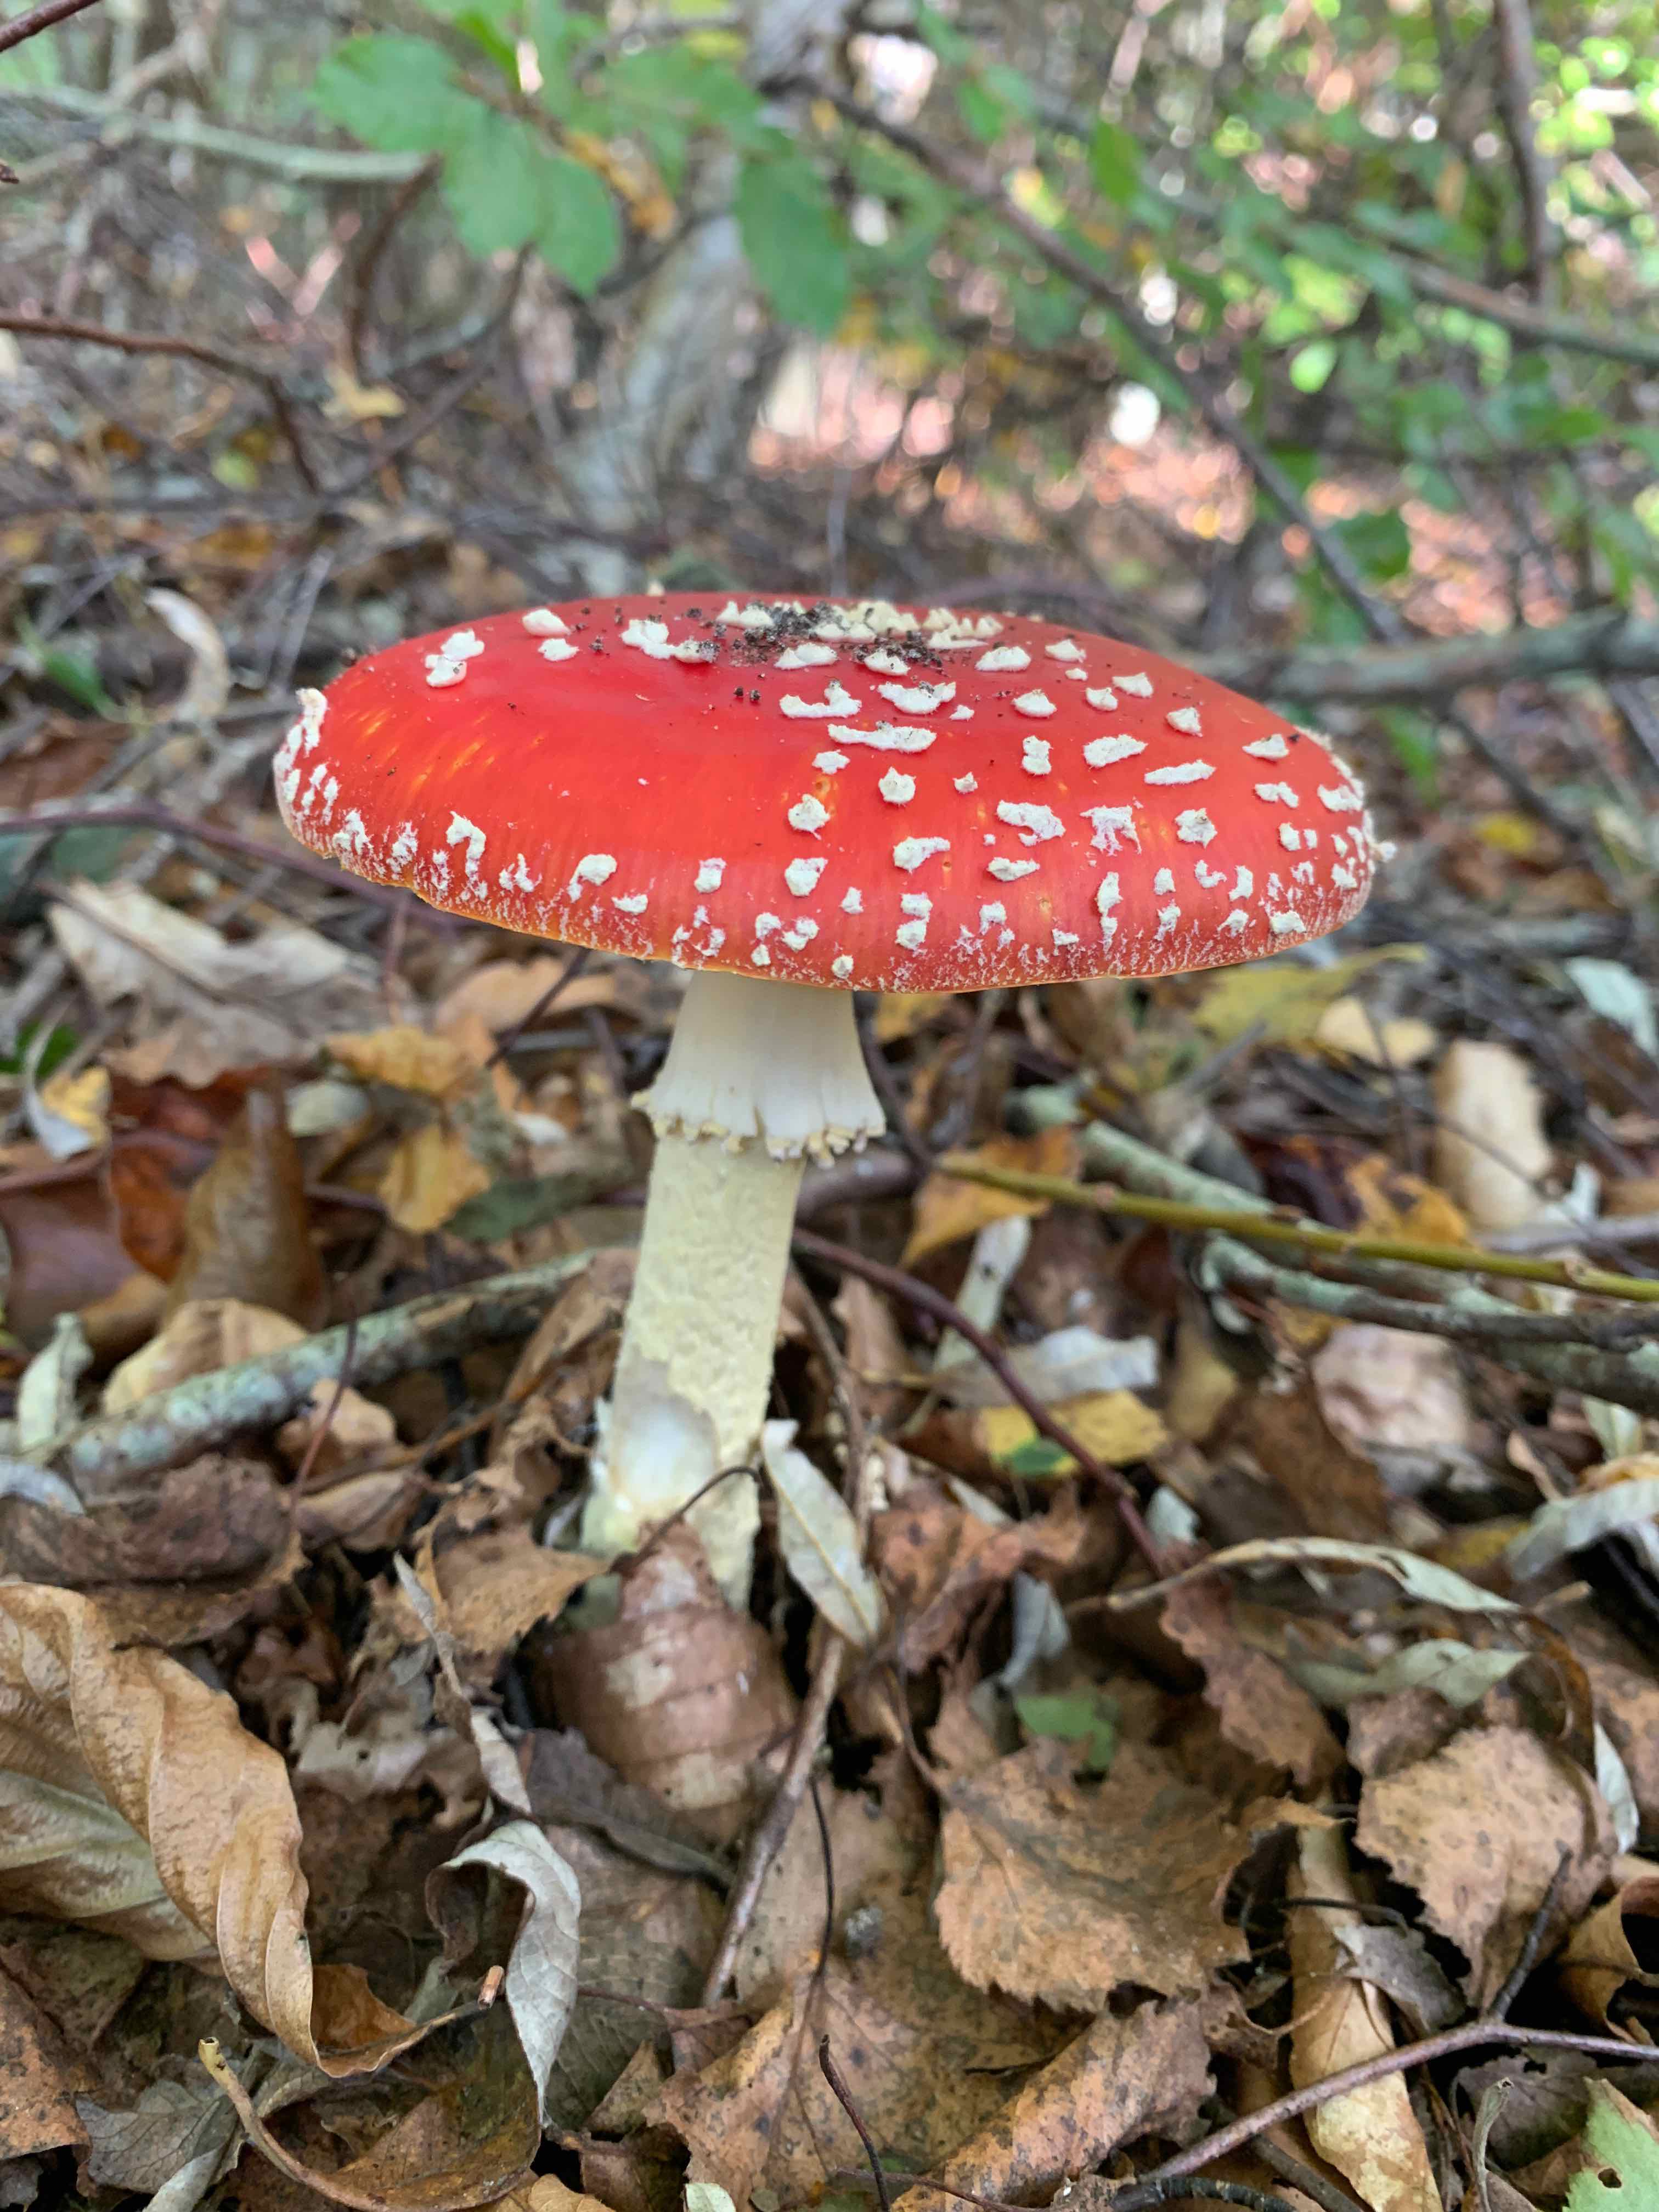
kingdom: Fungi
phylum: Basidiomycota
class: Agaricomycetes
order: Agaricales
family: Amanitaceae
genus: Amanita
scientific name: Amanita muscaria
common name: rød fluesvamp
